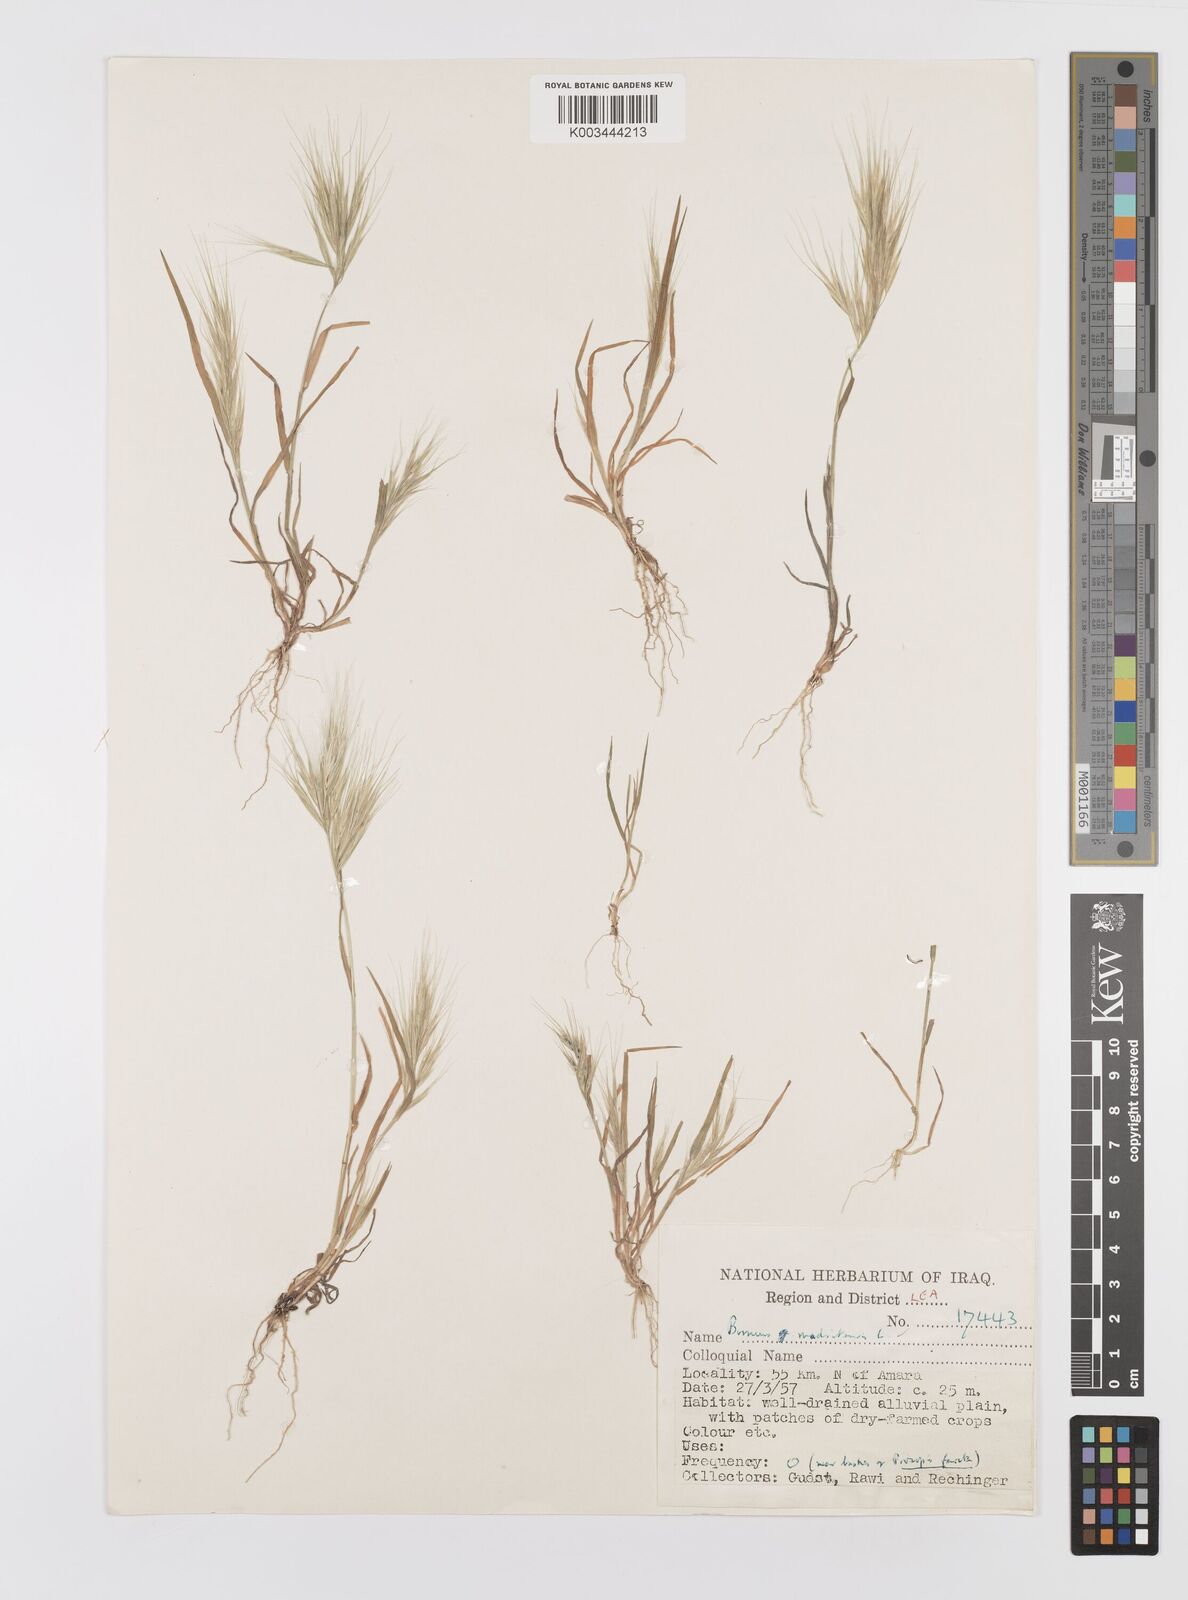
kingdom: Plantae
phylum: Tracheophyta
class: Liliopsida
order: Poales
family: Poaceae
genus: Bromus
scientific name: Bromus madritensis
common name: Compact brome
